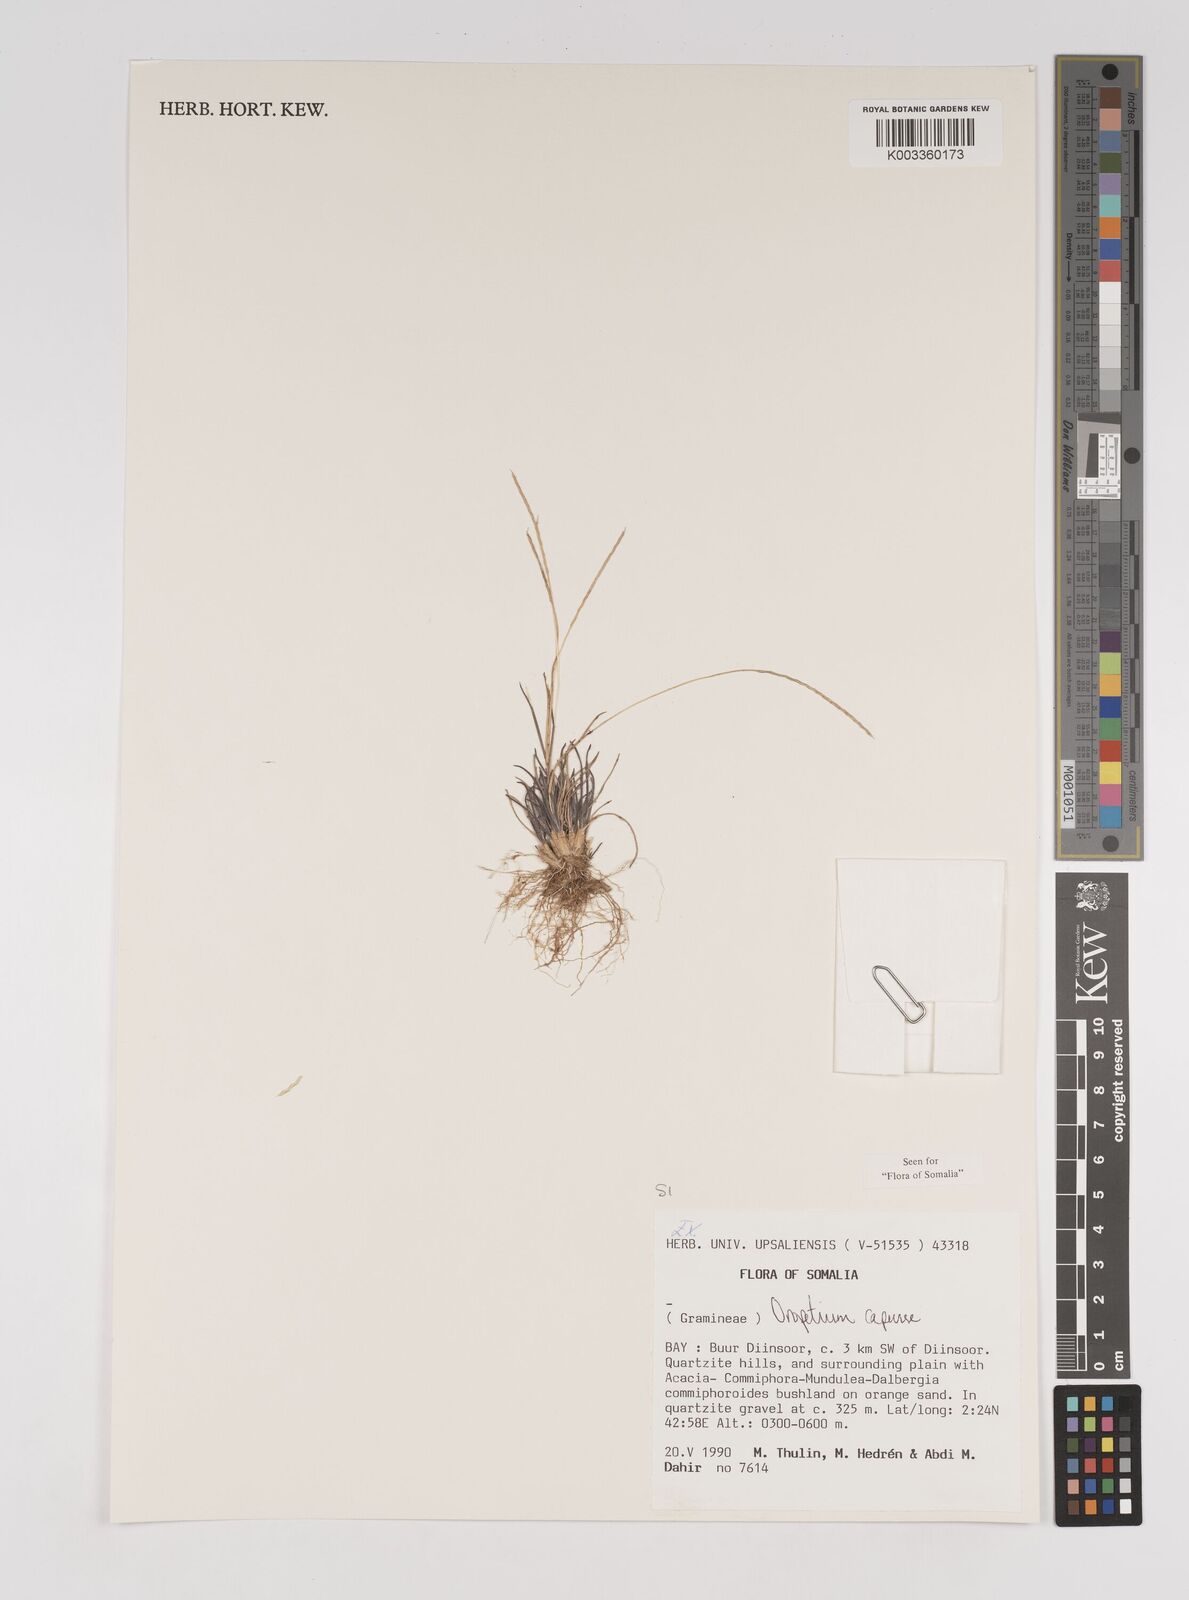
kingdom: Plantae
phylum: Tracheophyta
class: Liliopsida
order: Poales
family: Poaceae
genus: Oropetium
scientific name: Oropetium capense
